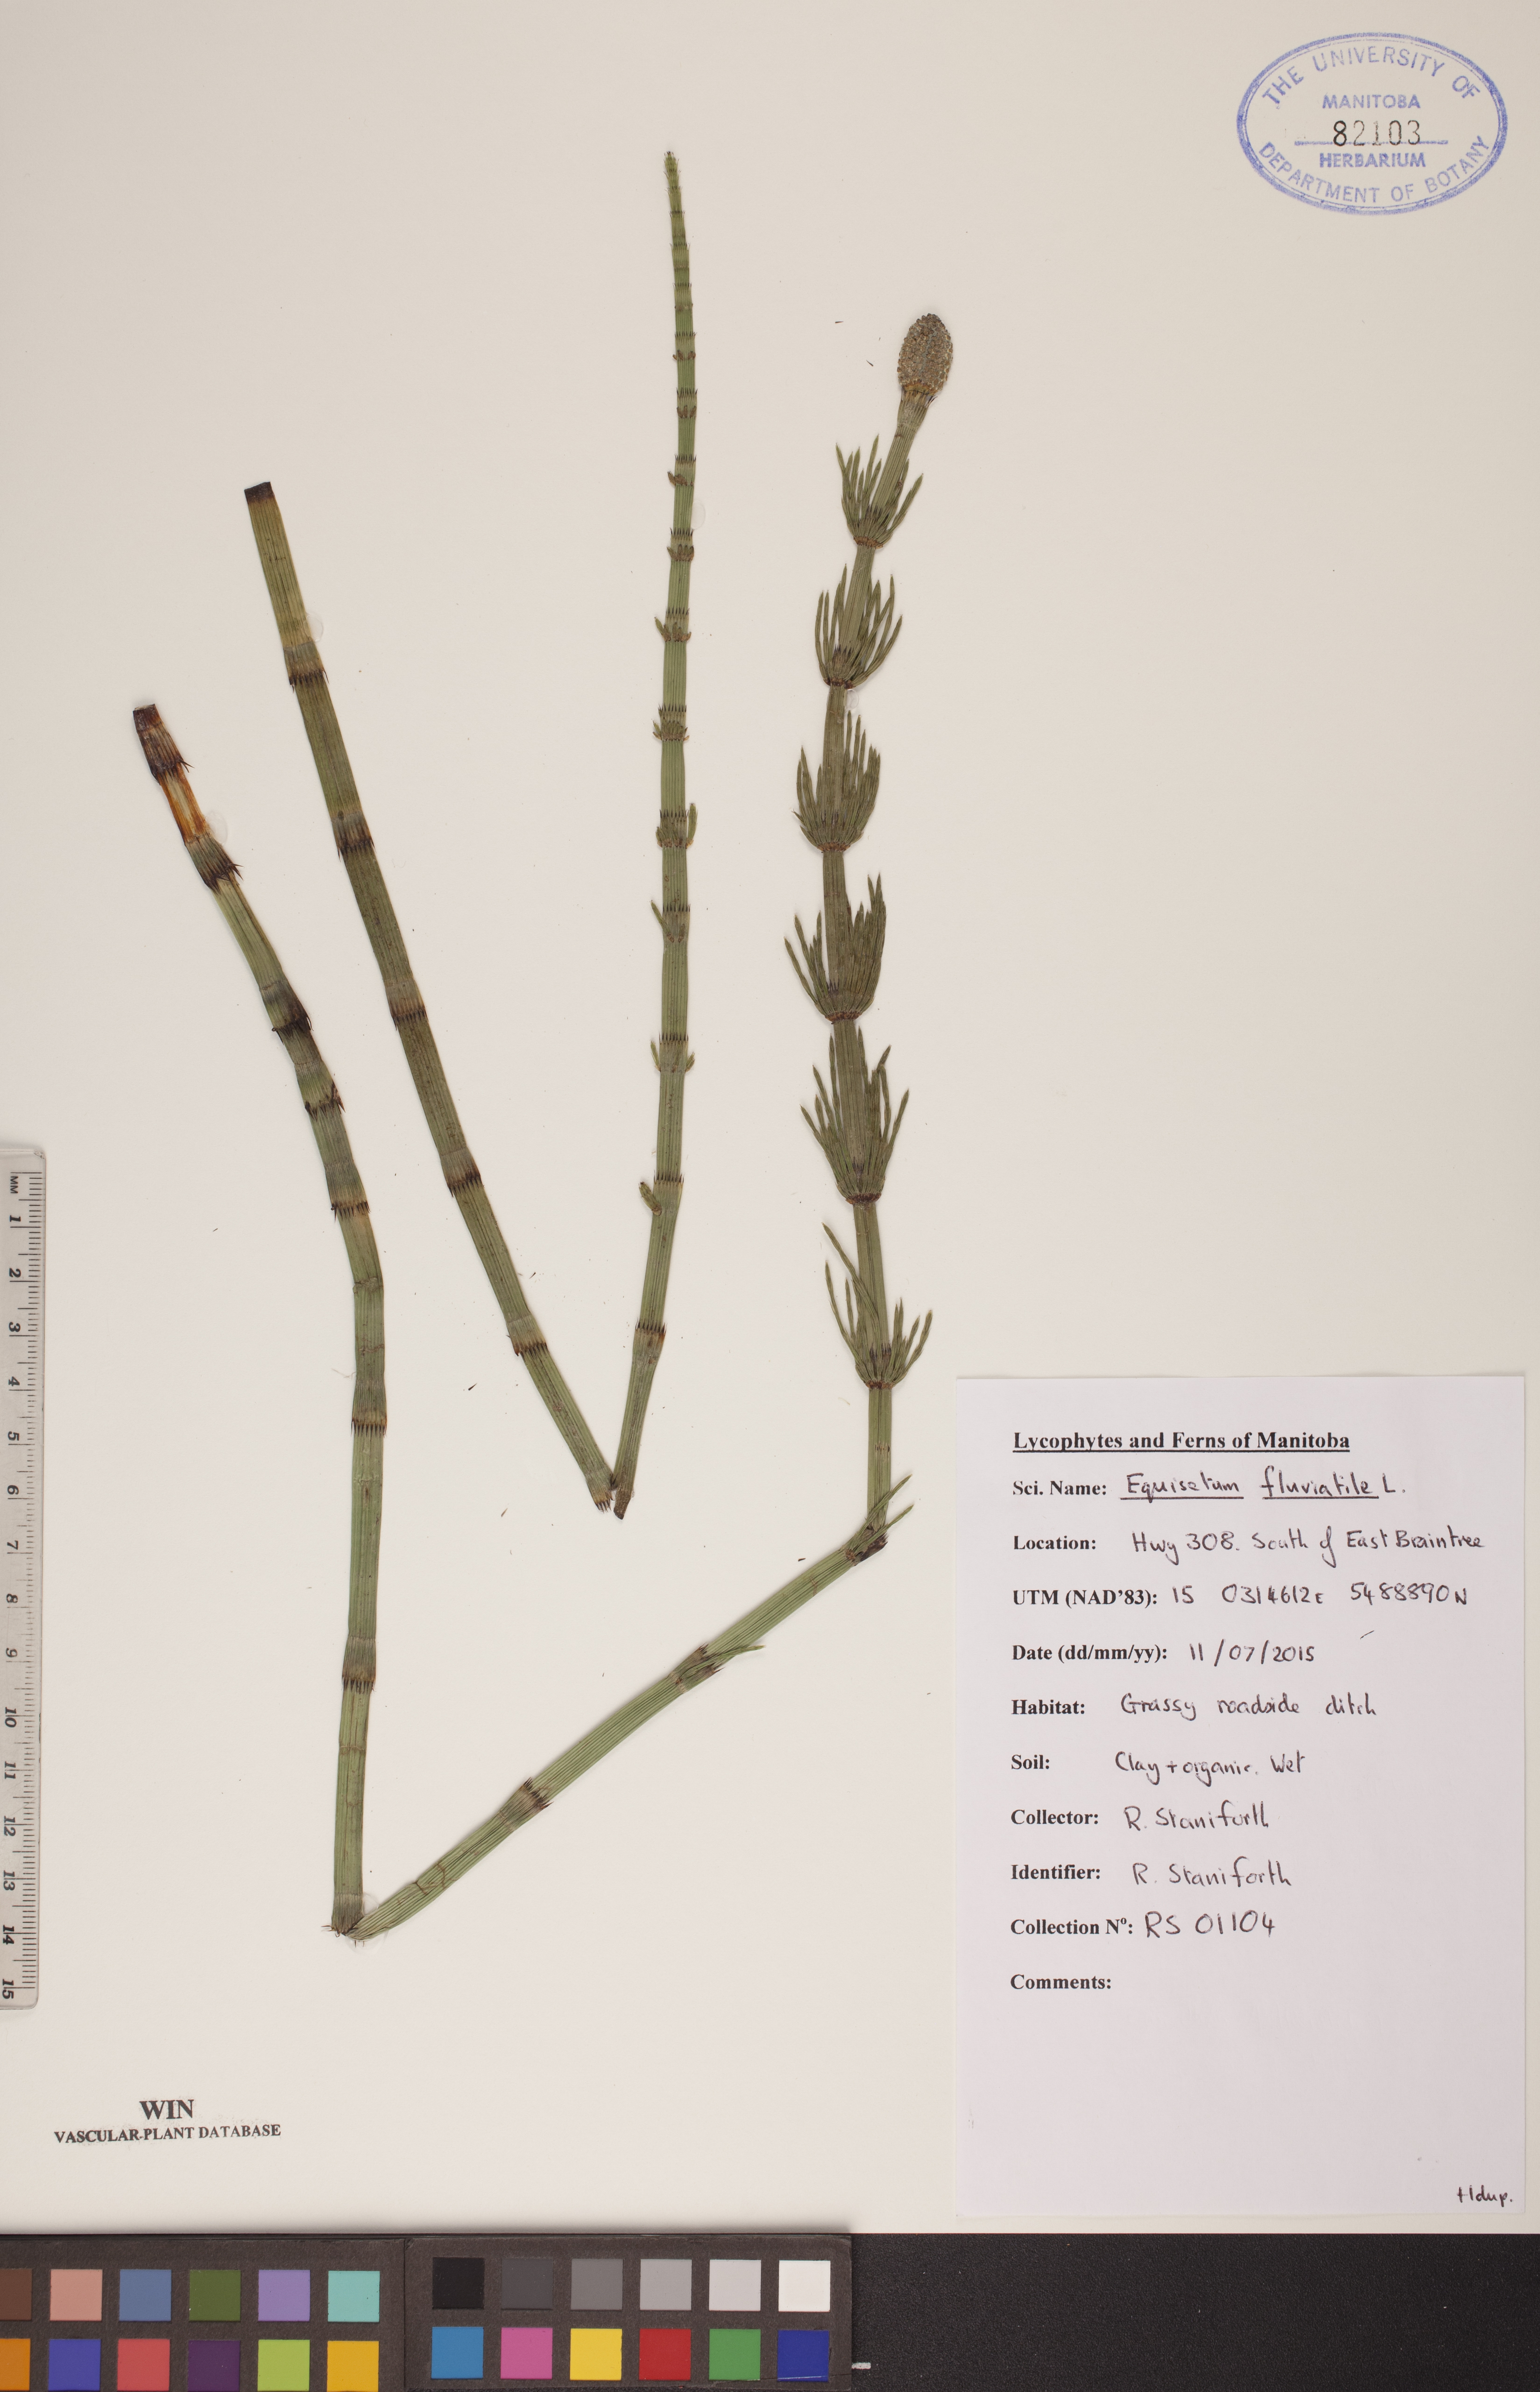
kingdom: Plantae
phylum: Tracheophyta
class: Polypodiopsida
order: Equisetales
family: Equisetaceae
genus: Equisetum
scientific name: Equisetum fluviatile
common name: Water horsetail
